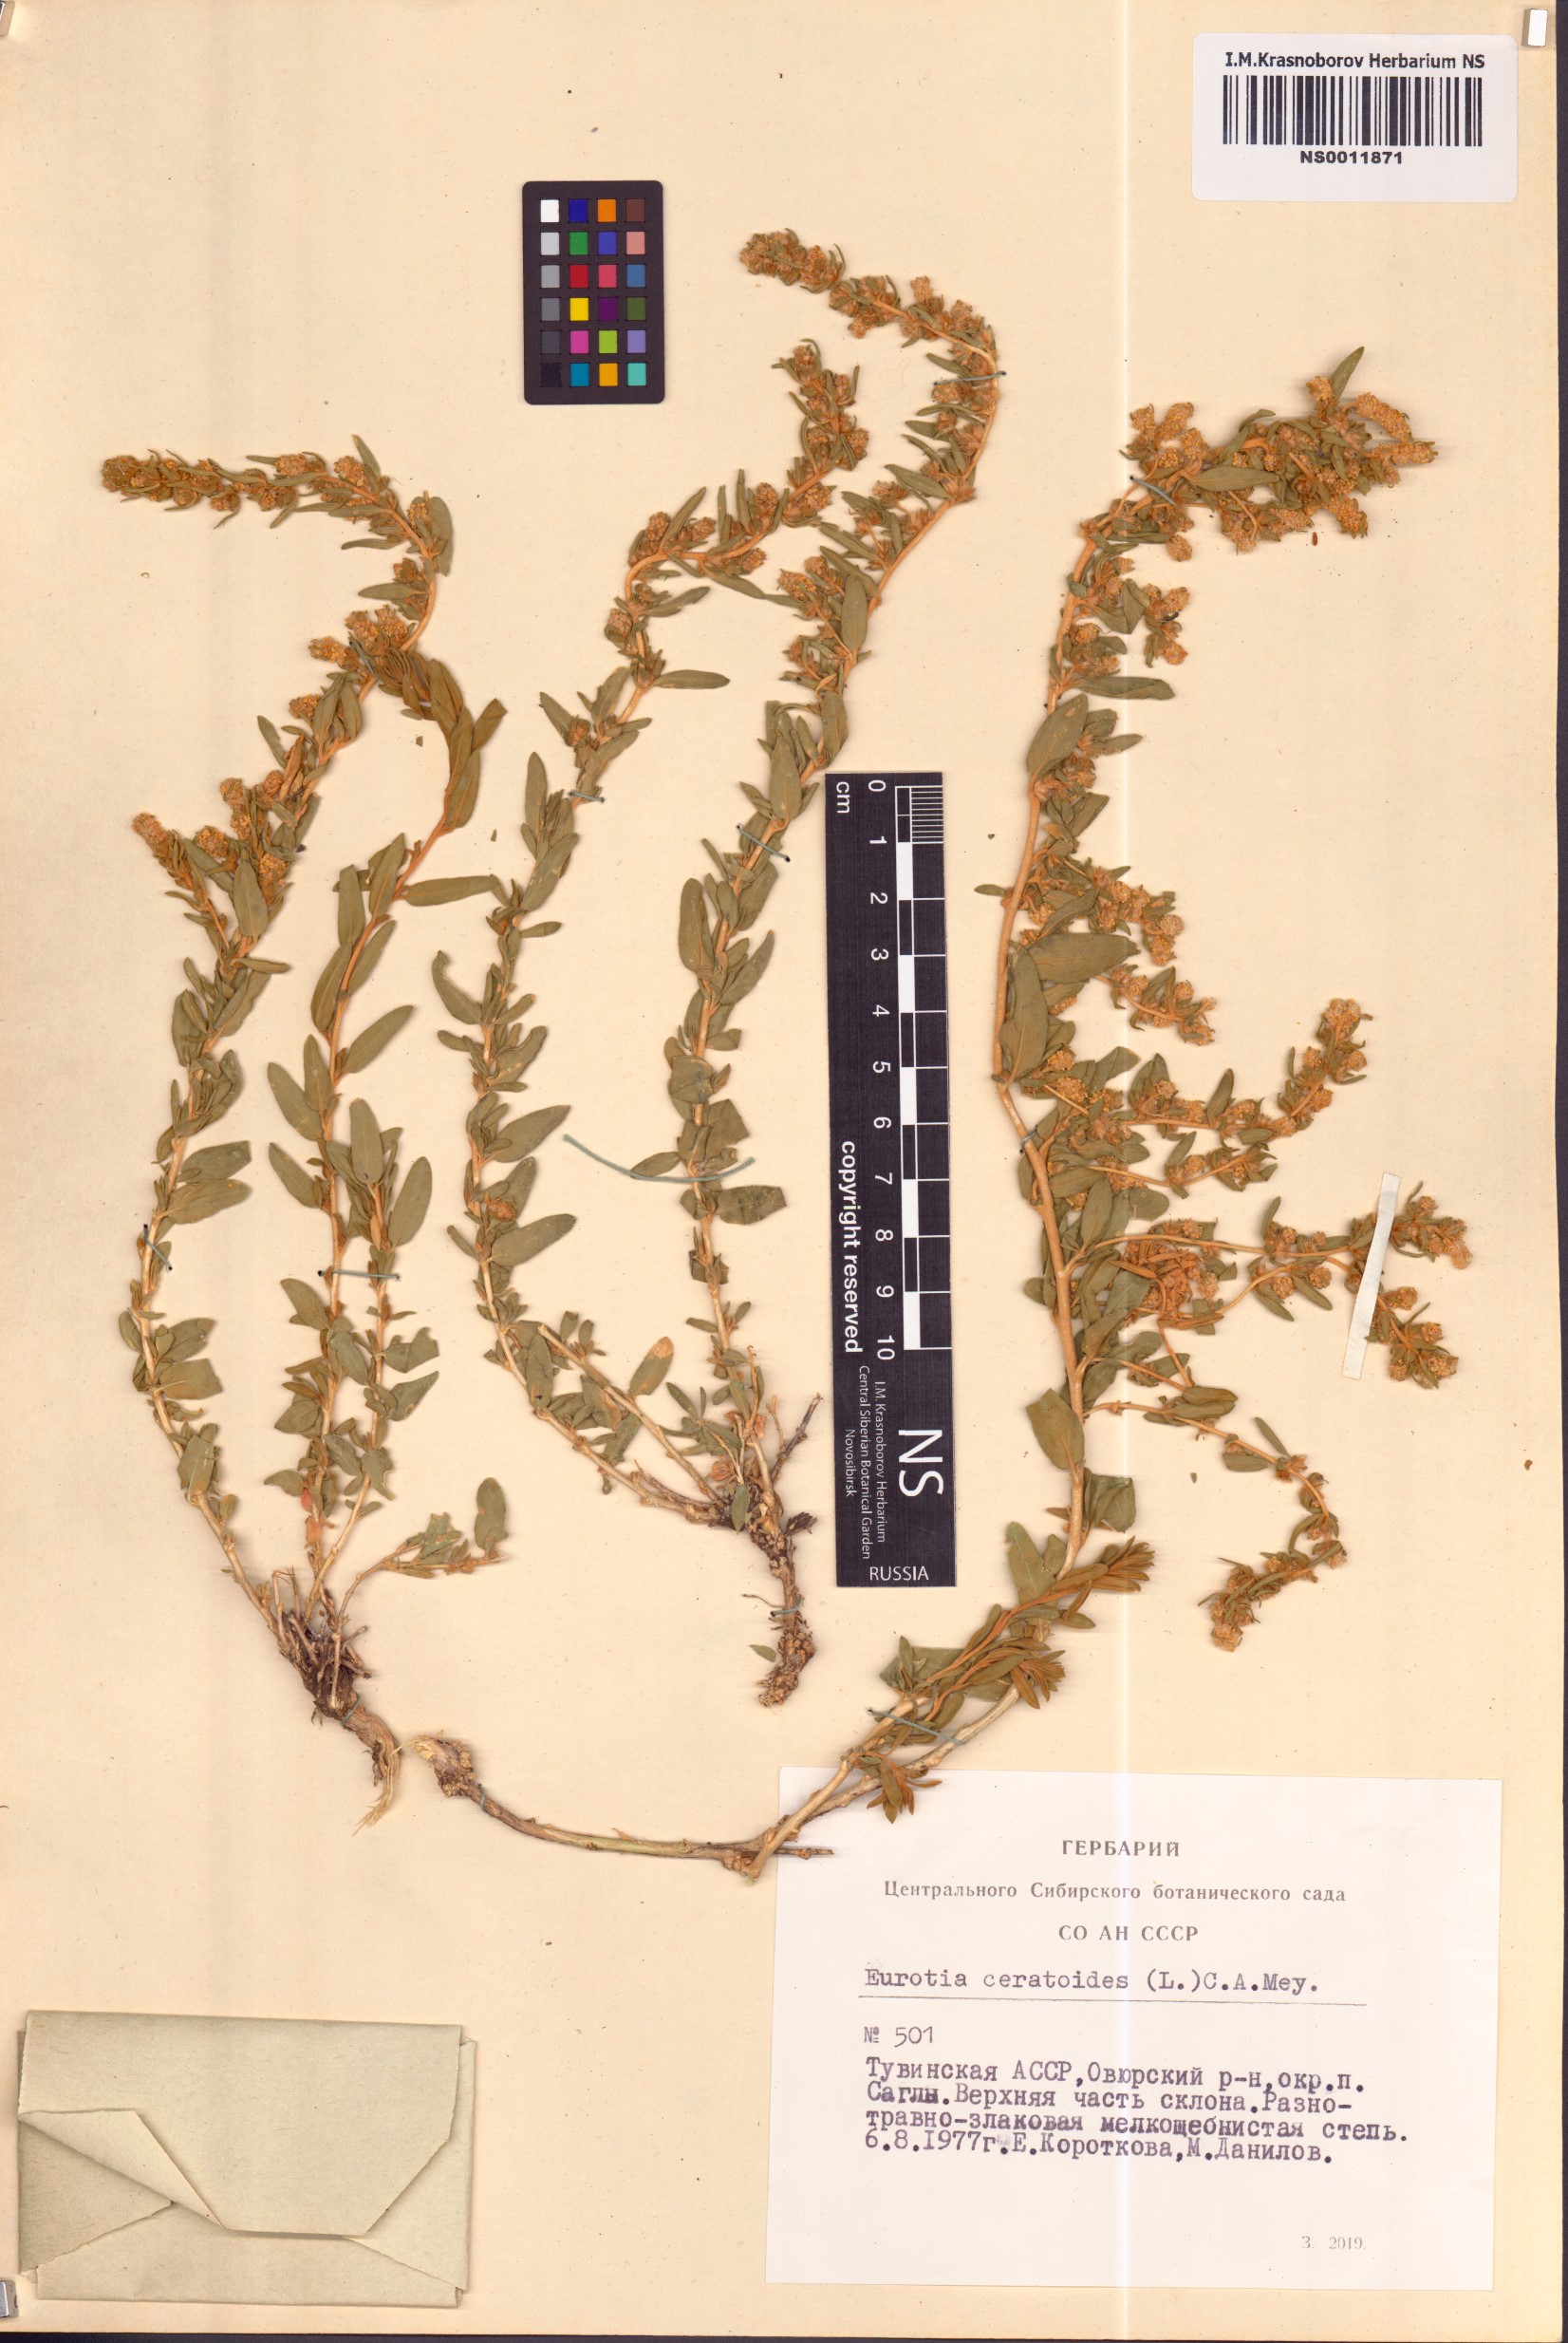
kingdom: Plantae
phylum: Tracheophyta
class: Magnoliopsida
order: Caryophyllales
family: Amaranthaceae
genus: Krascheninnikovia
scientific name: Krascheninnikovia ceratoides
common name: Pamirian winterfat
